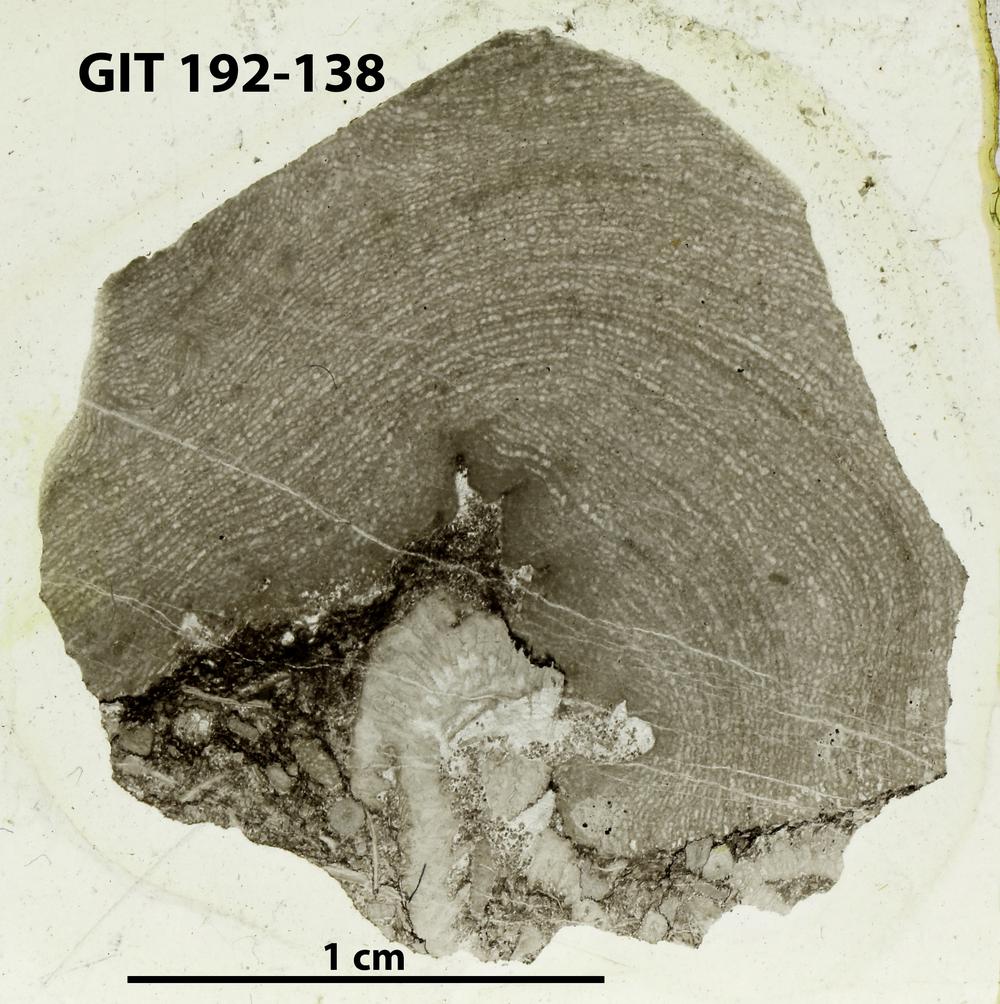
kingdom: Animalia
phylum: Porifera
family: Clathrodictyidae
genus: Clathrodictyon
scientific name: Clathrodictyon
